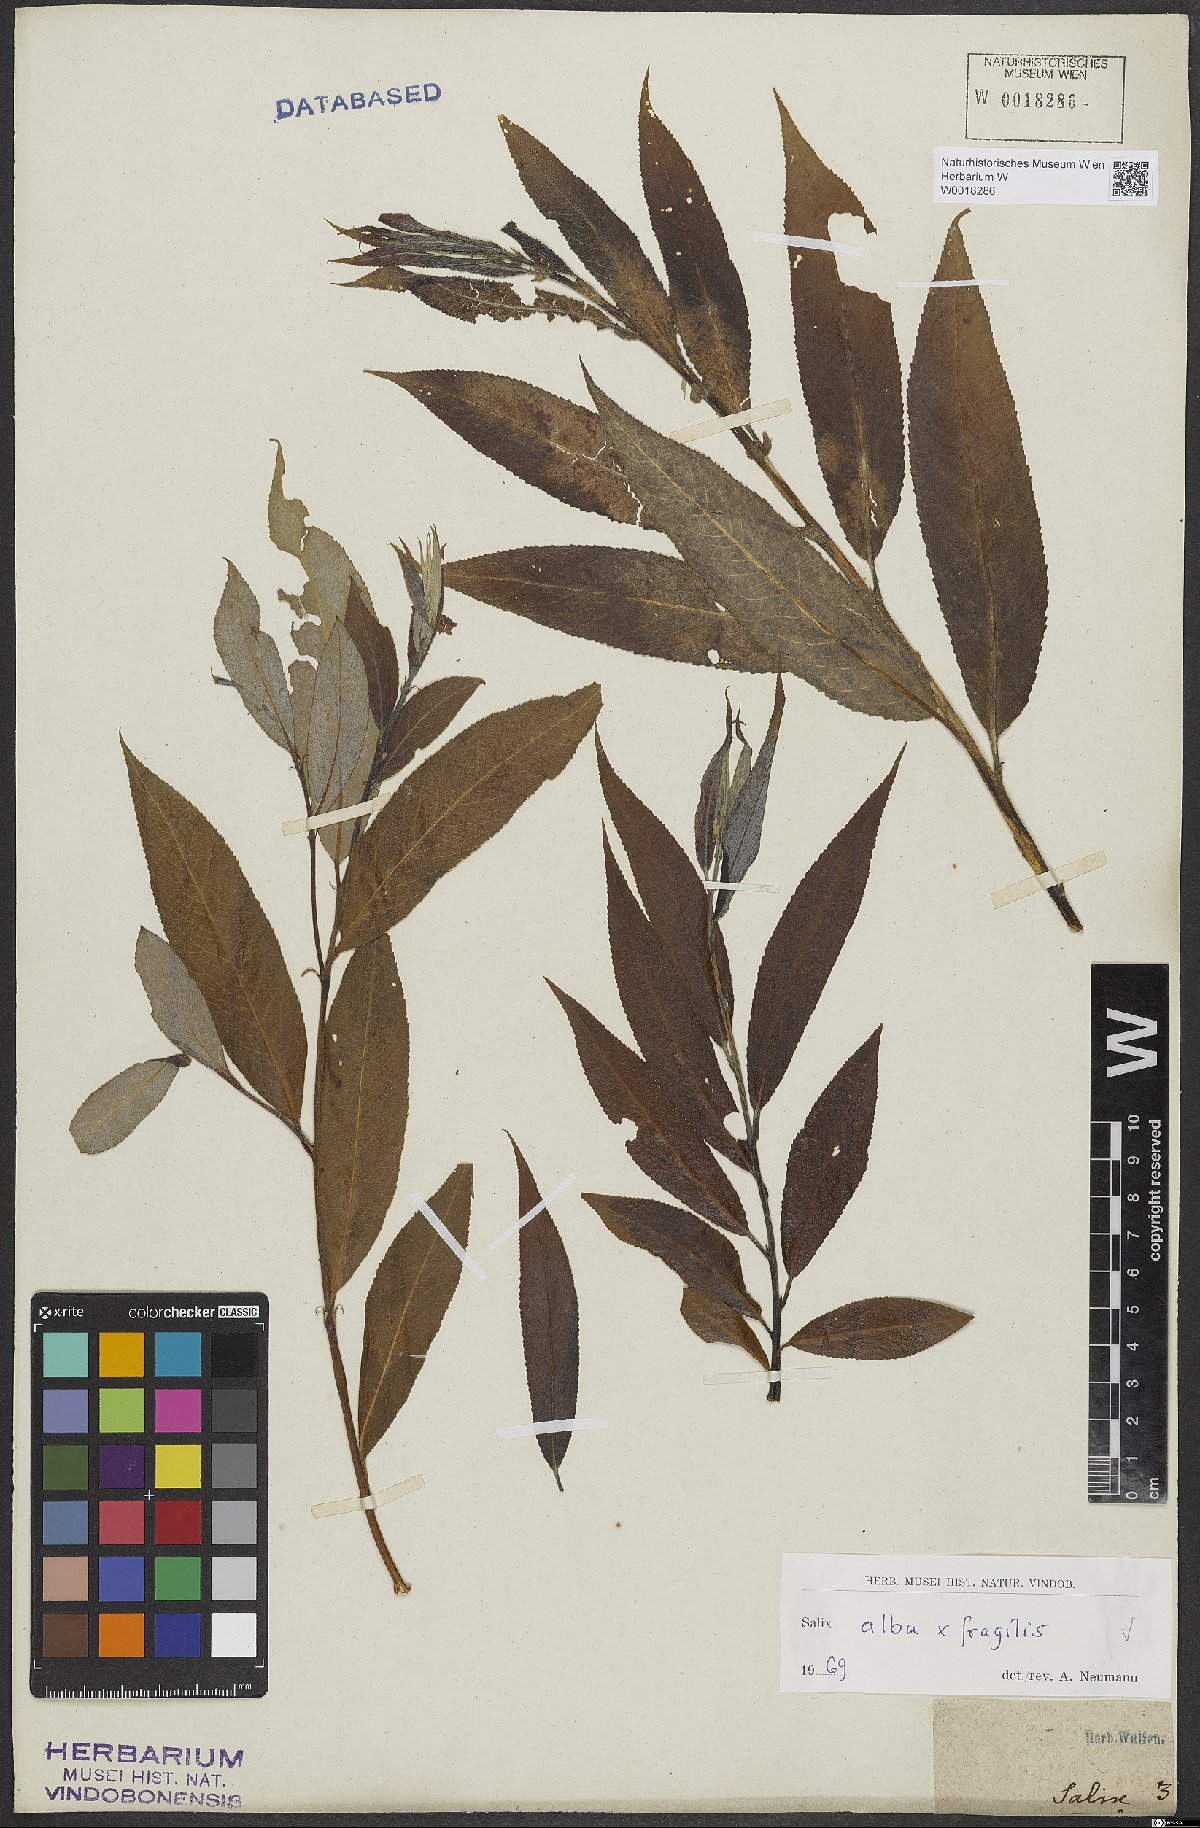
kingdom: Plantae
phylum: Tracheophyta
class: Magnoliopsida
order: Malpighiales
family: Salicaceae
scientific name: Salicaceae
